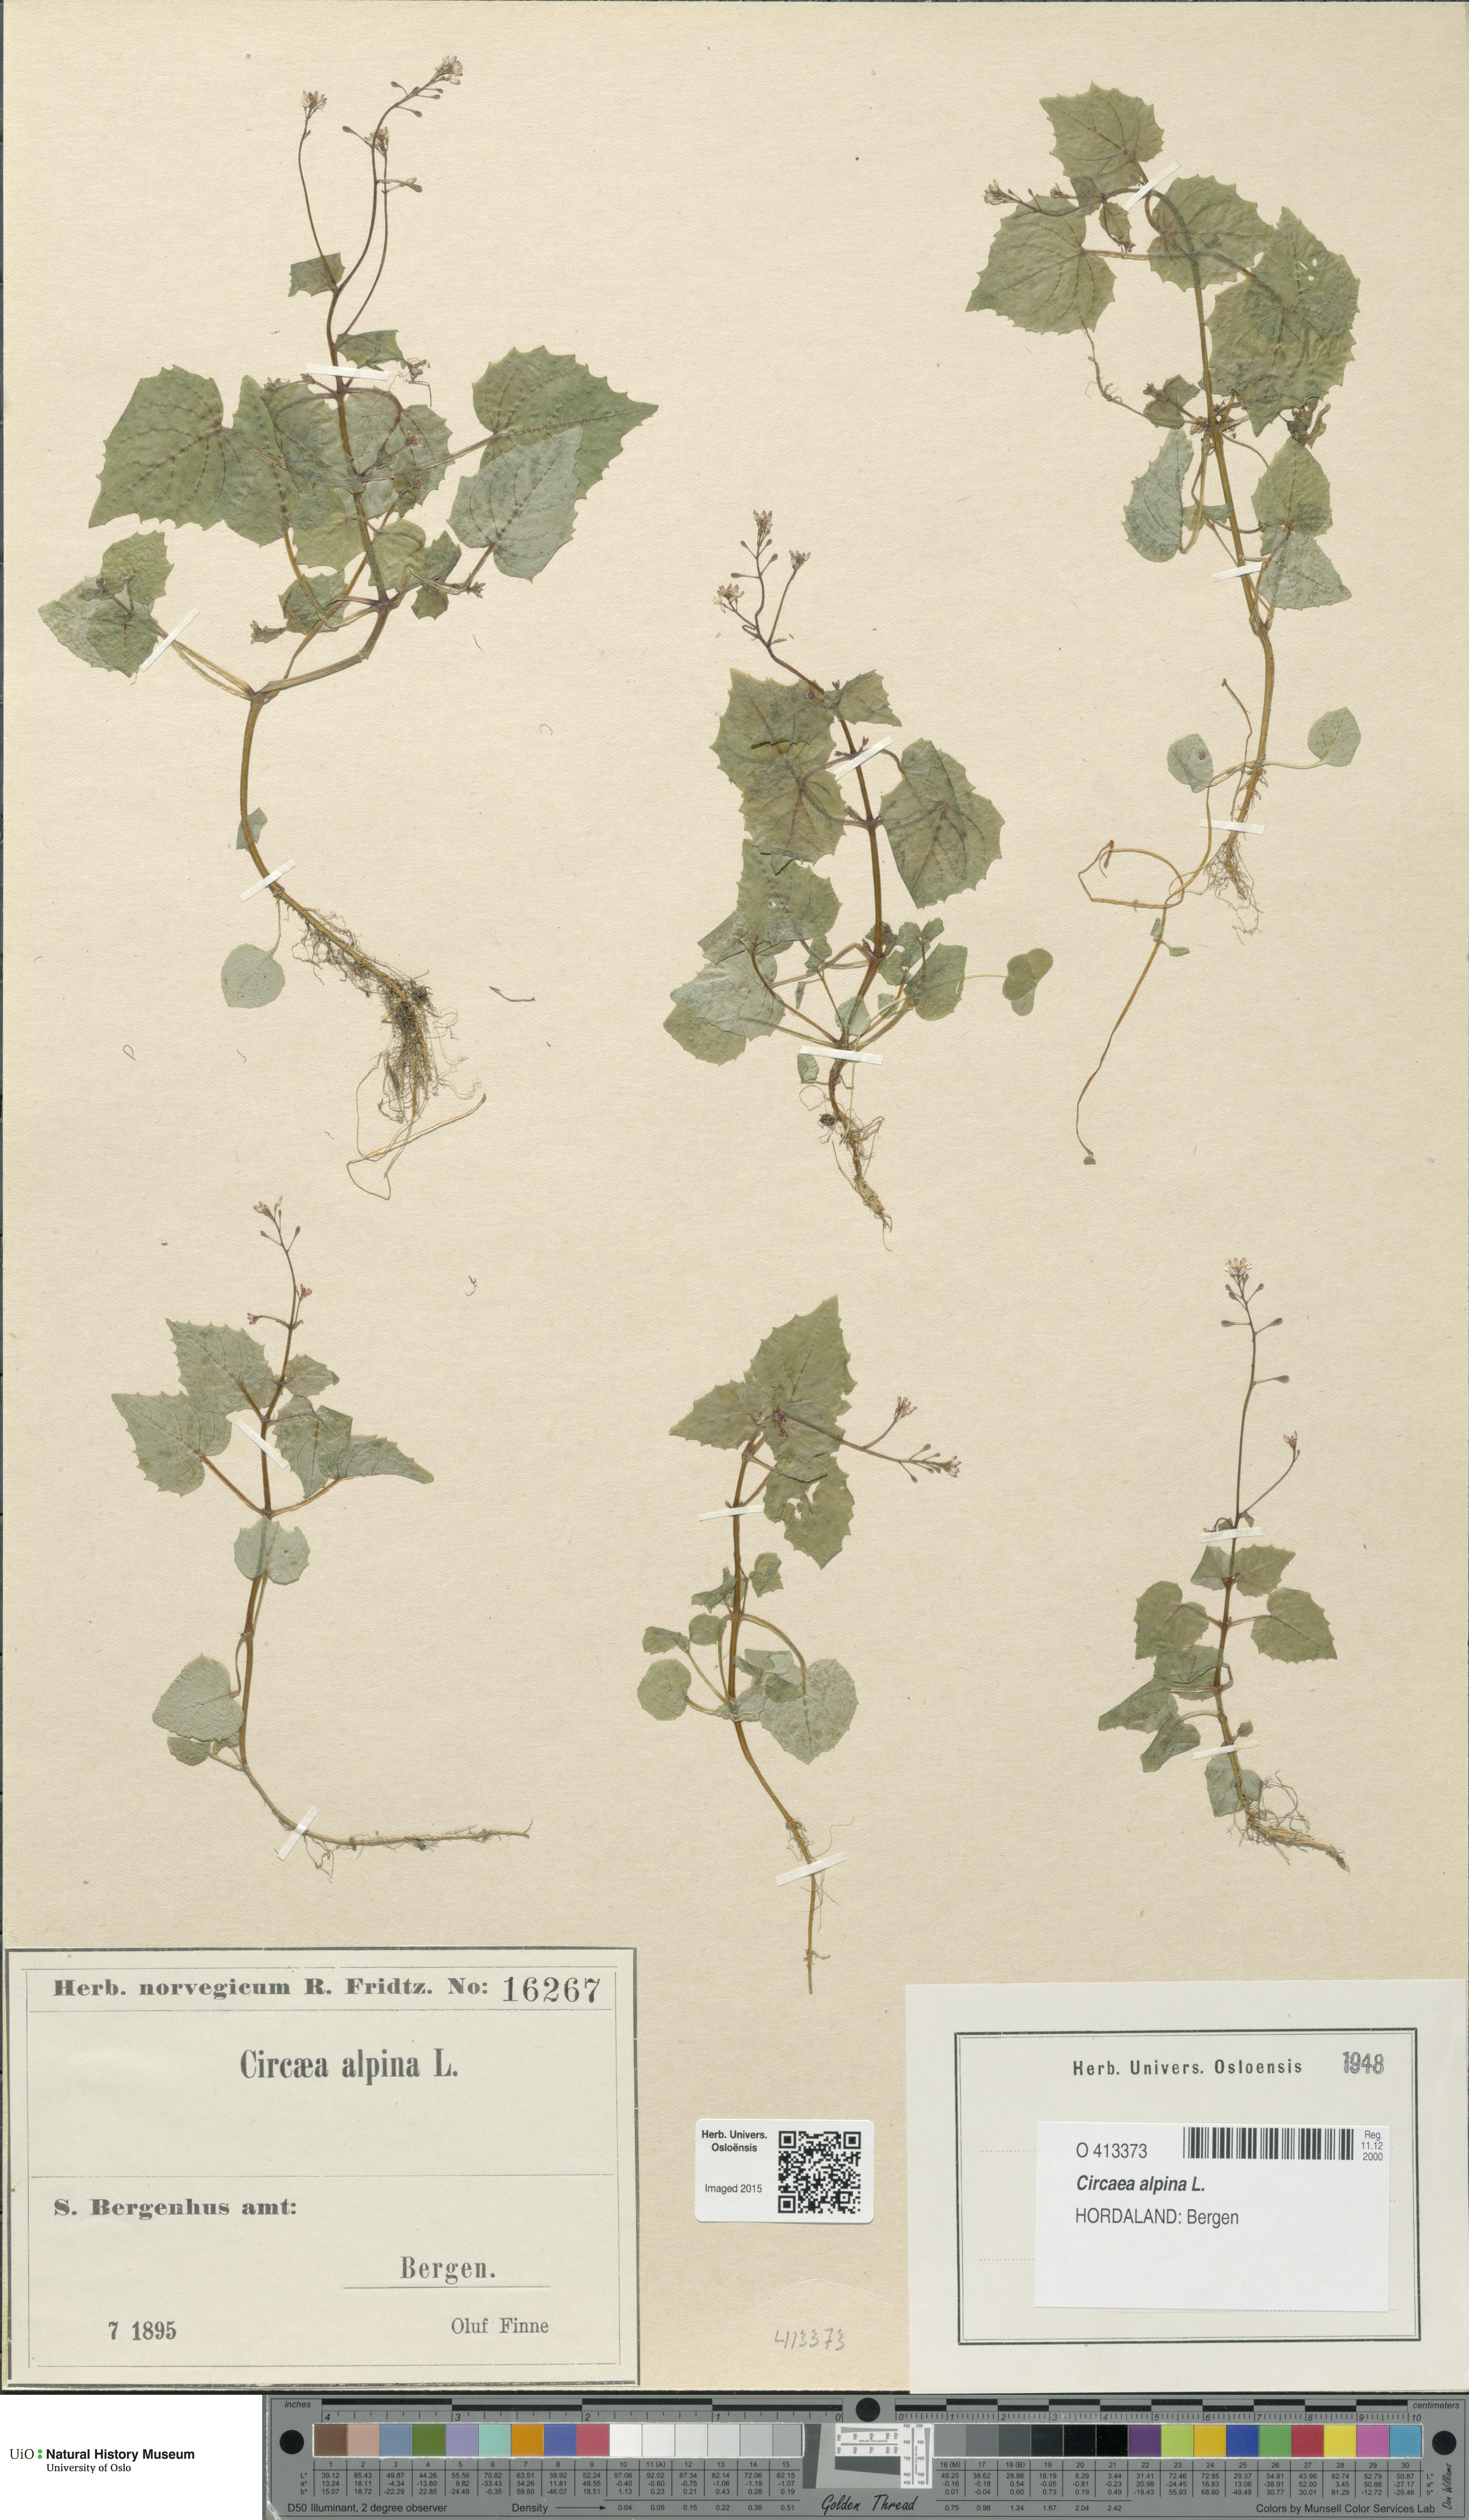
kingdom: Plantae
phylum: Tracheophyta
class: Magnoliopsida
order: Myrtales
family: Onagraceae
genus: Circaea
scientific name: Circaea alpina
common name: Alpine enchanter's-nightshade
